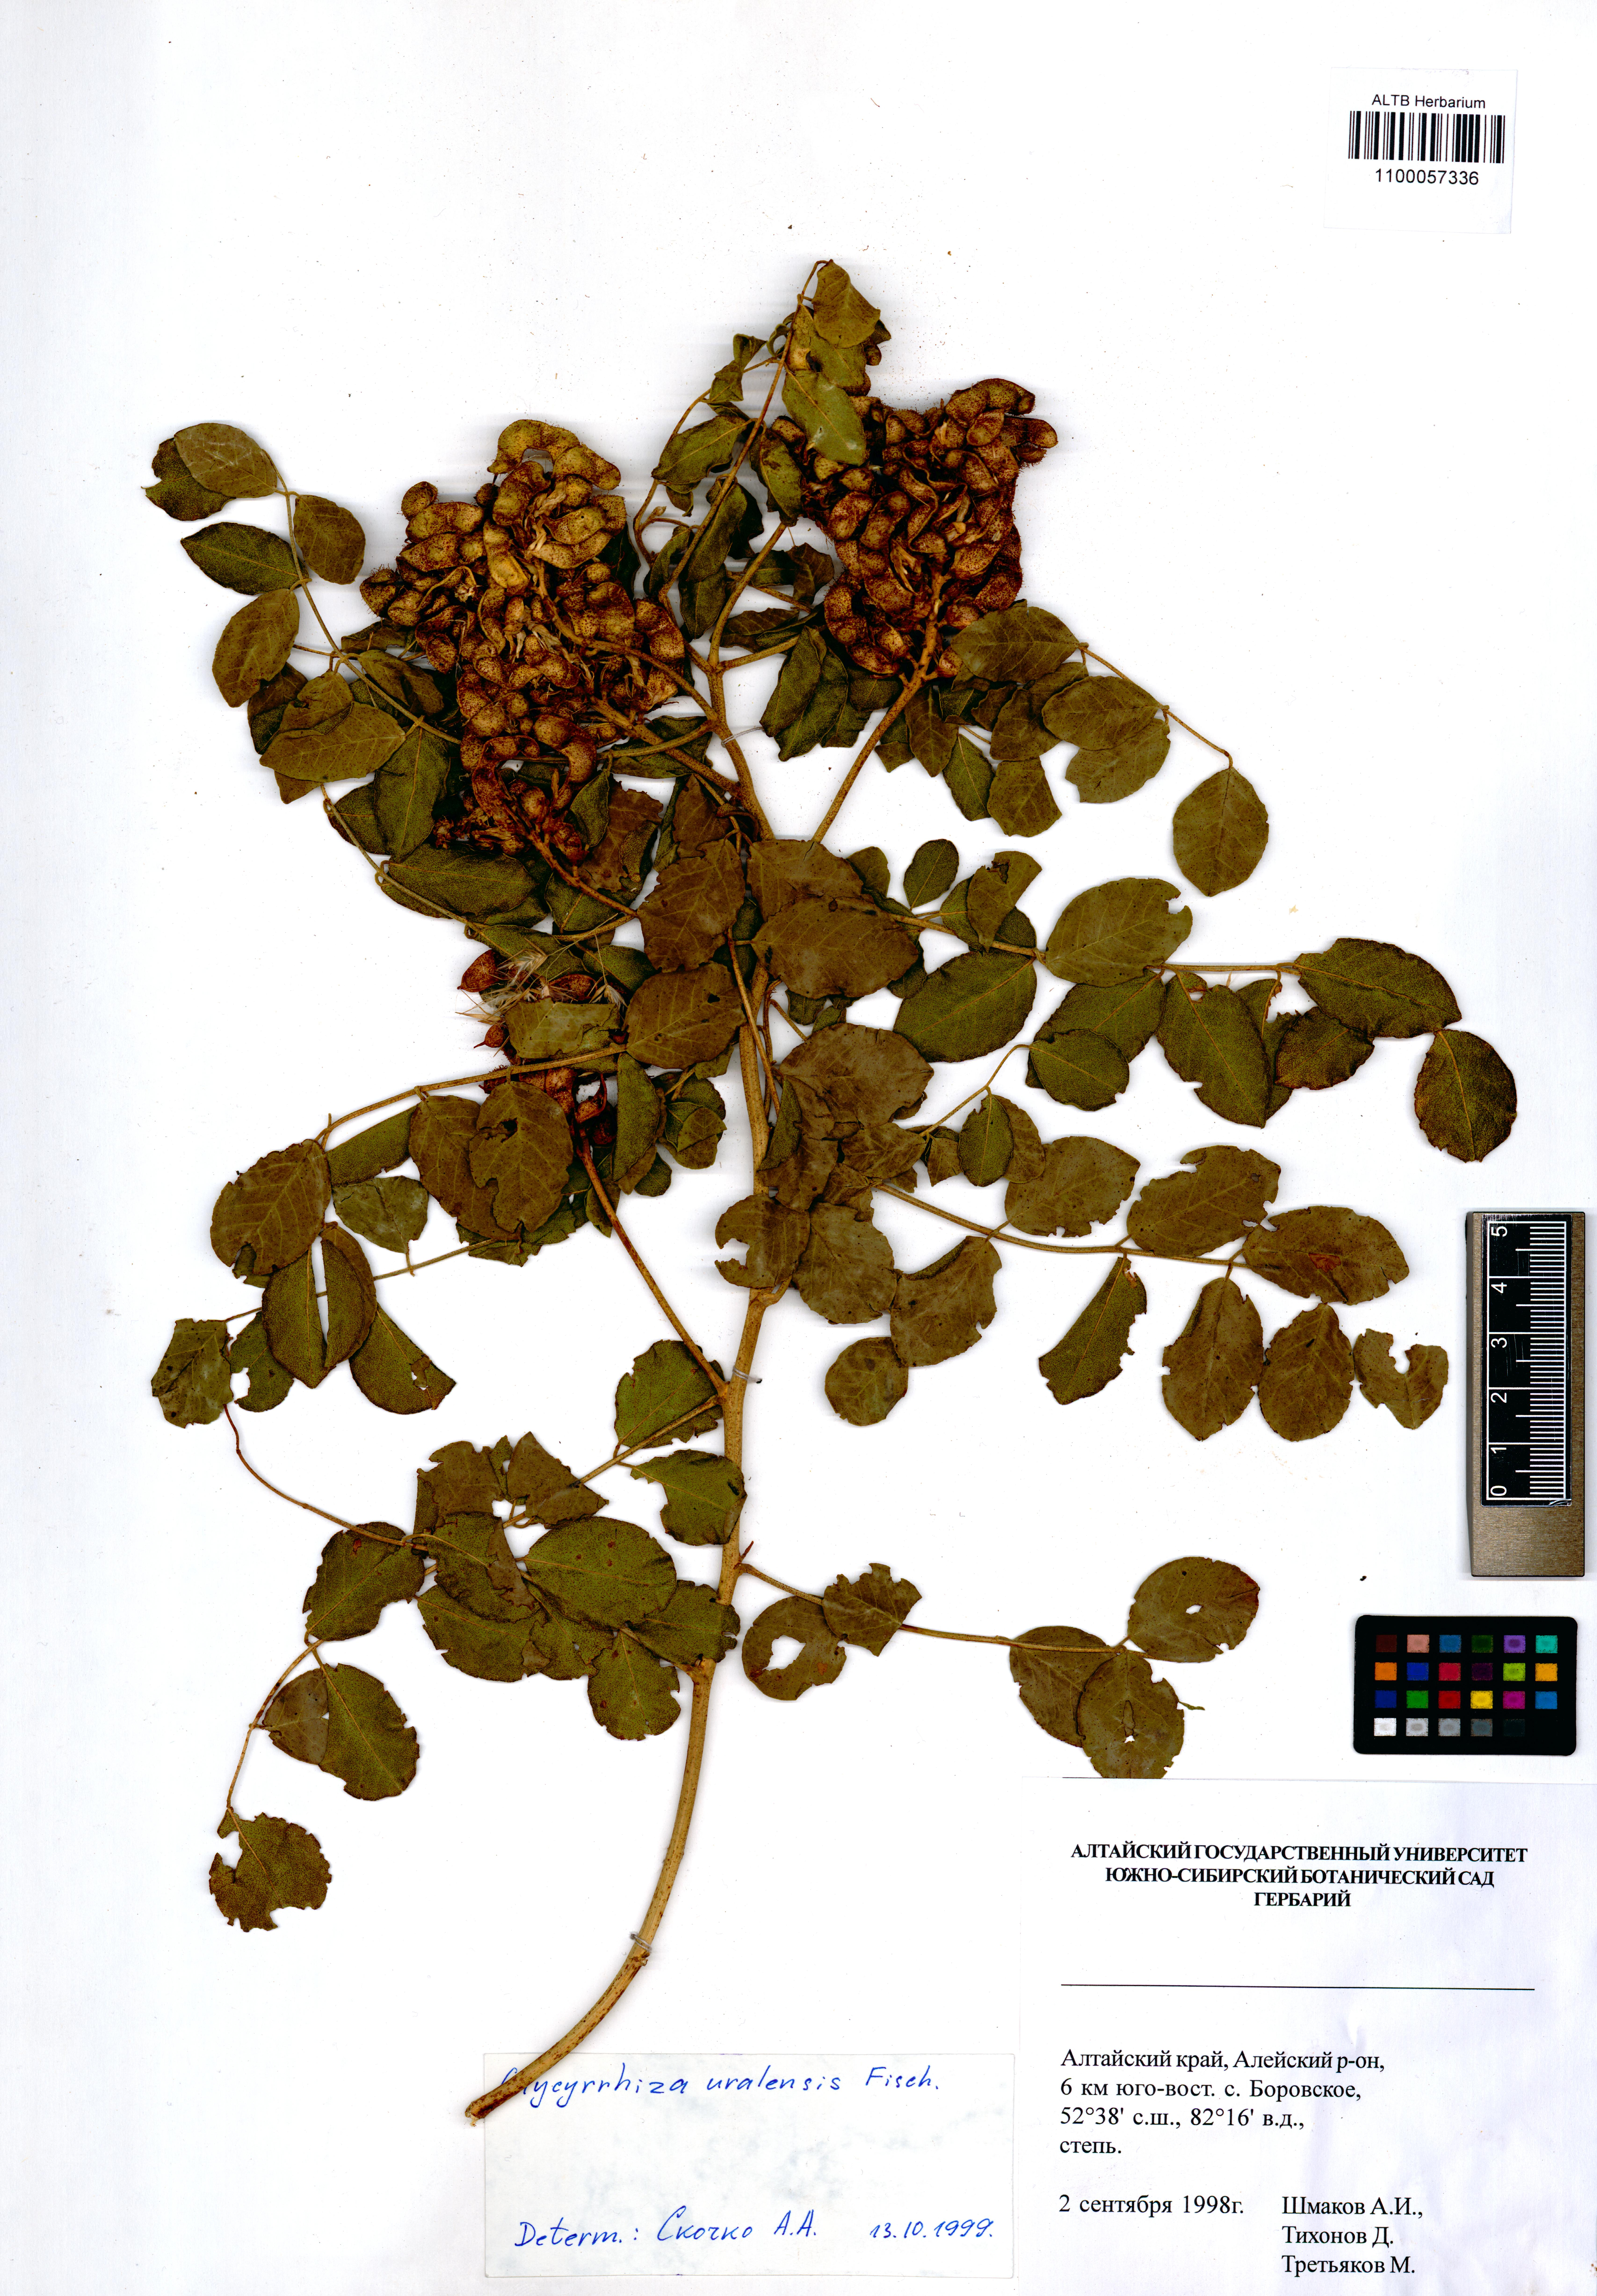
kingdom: Plantae
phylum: Tracheophyta
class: Magnoliopsida
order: Fabales
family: Fabaceae
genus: Glycyrrhiza
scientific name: Glycyrrhiza uralensis
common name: Chinese licorice
